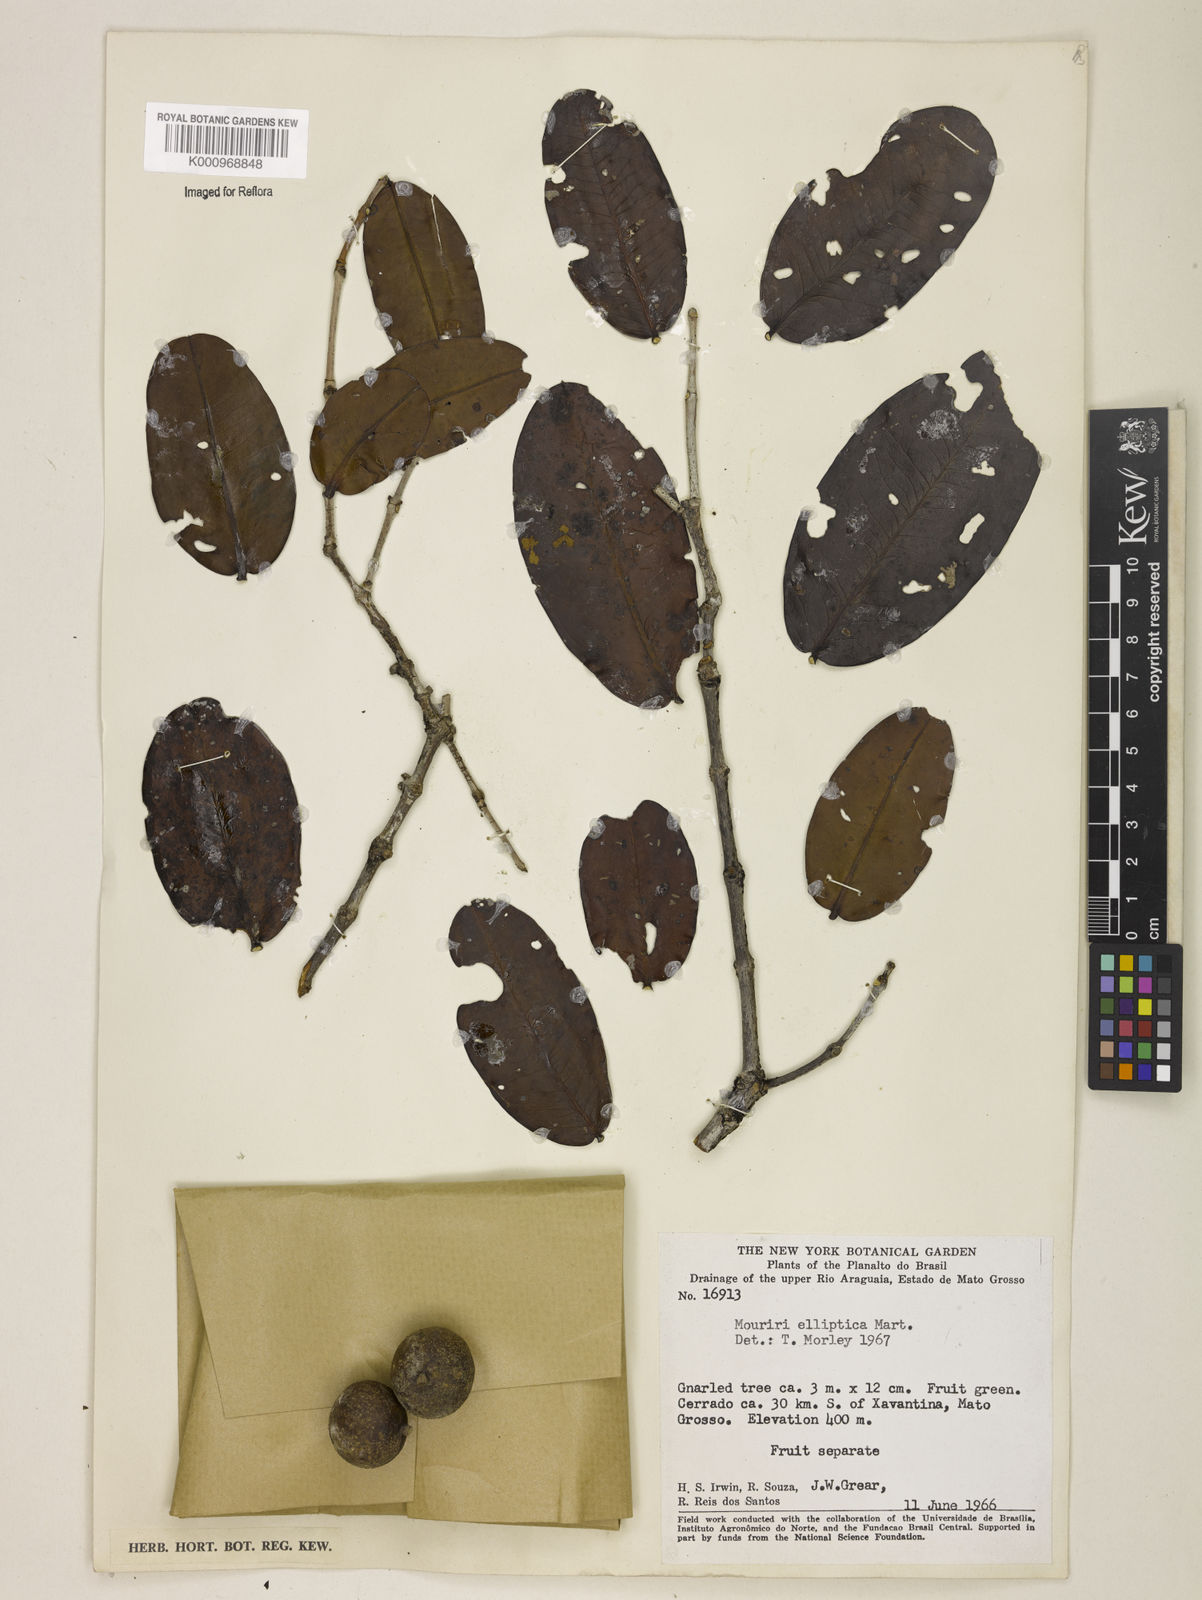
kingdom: Plantae
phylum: Tracheophyta
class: Magnoliopsida
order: Myrtales
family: Melastomataceae
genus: Mouriri
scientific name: Mouriri elliptica
